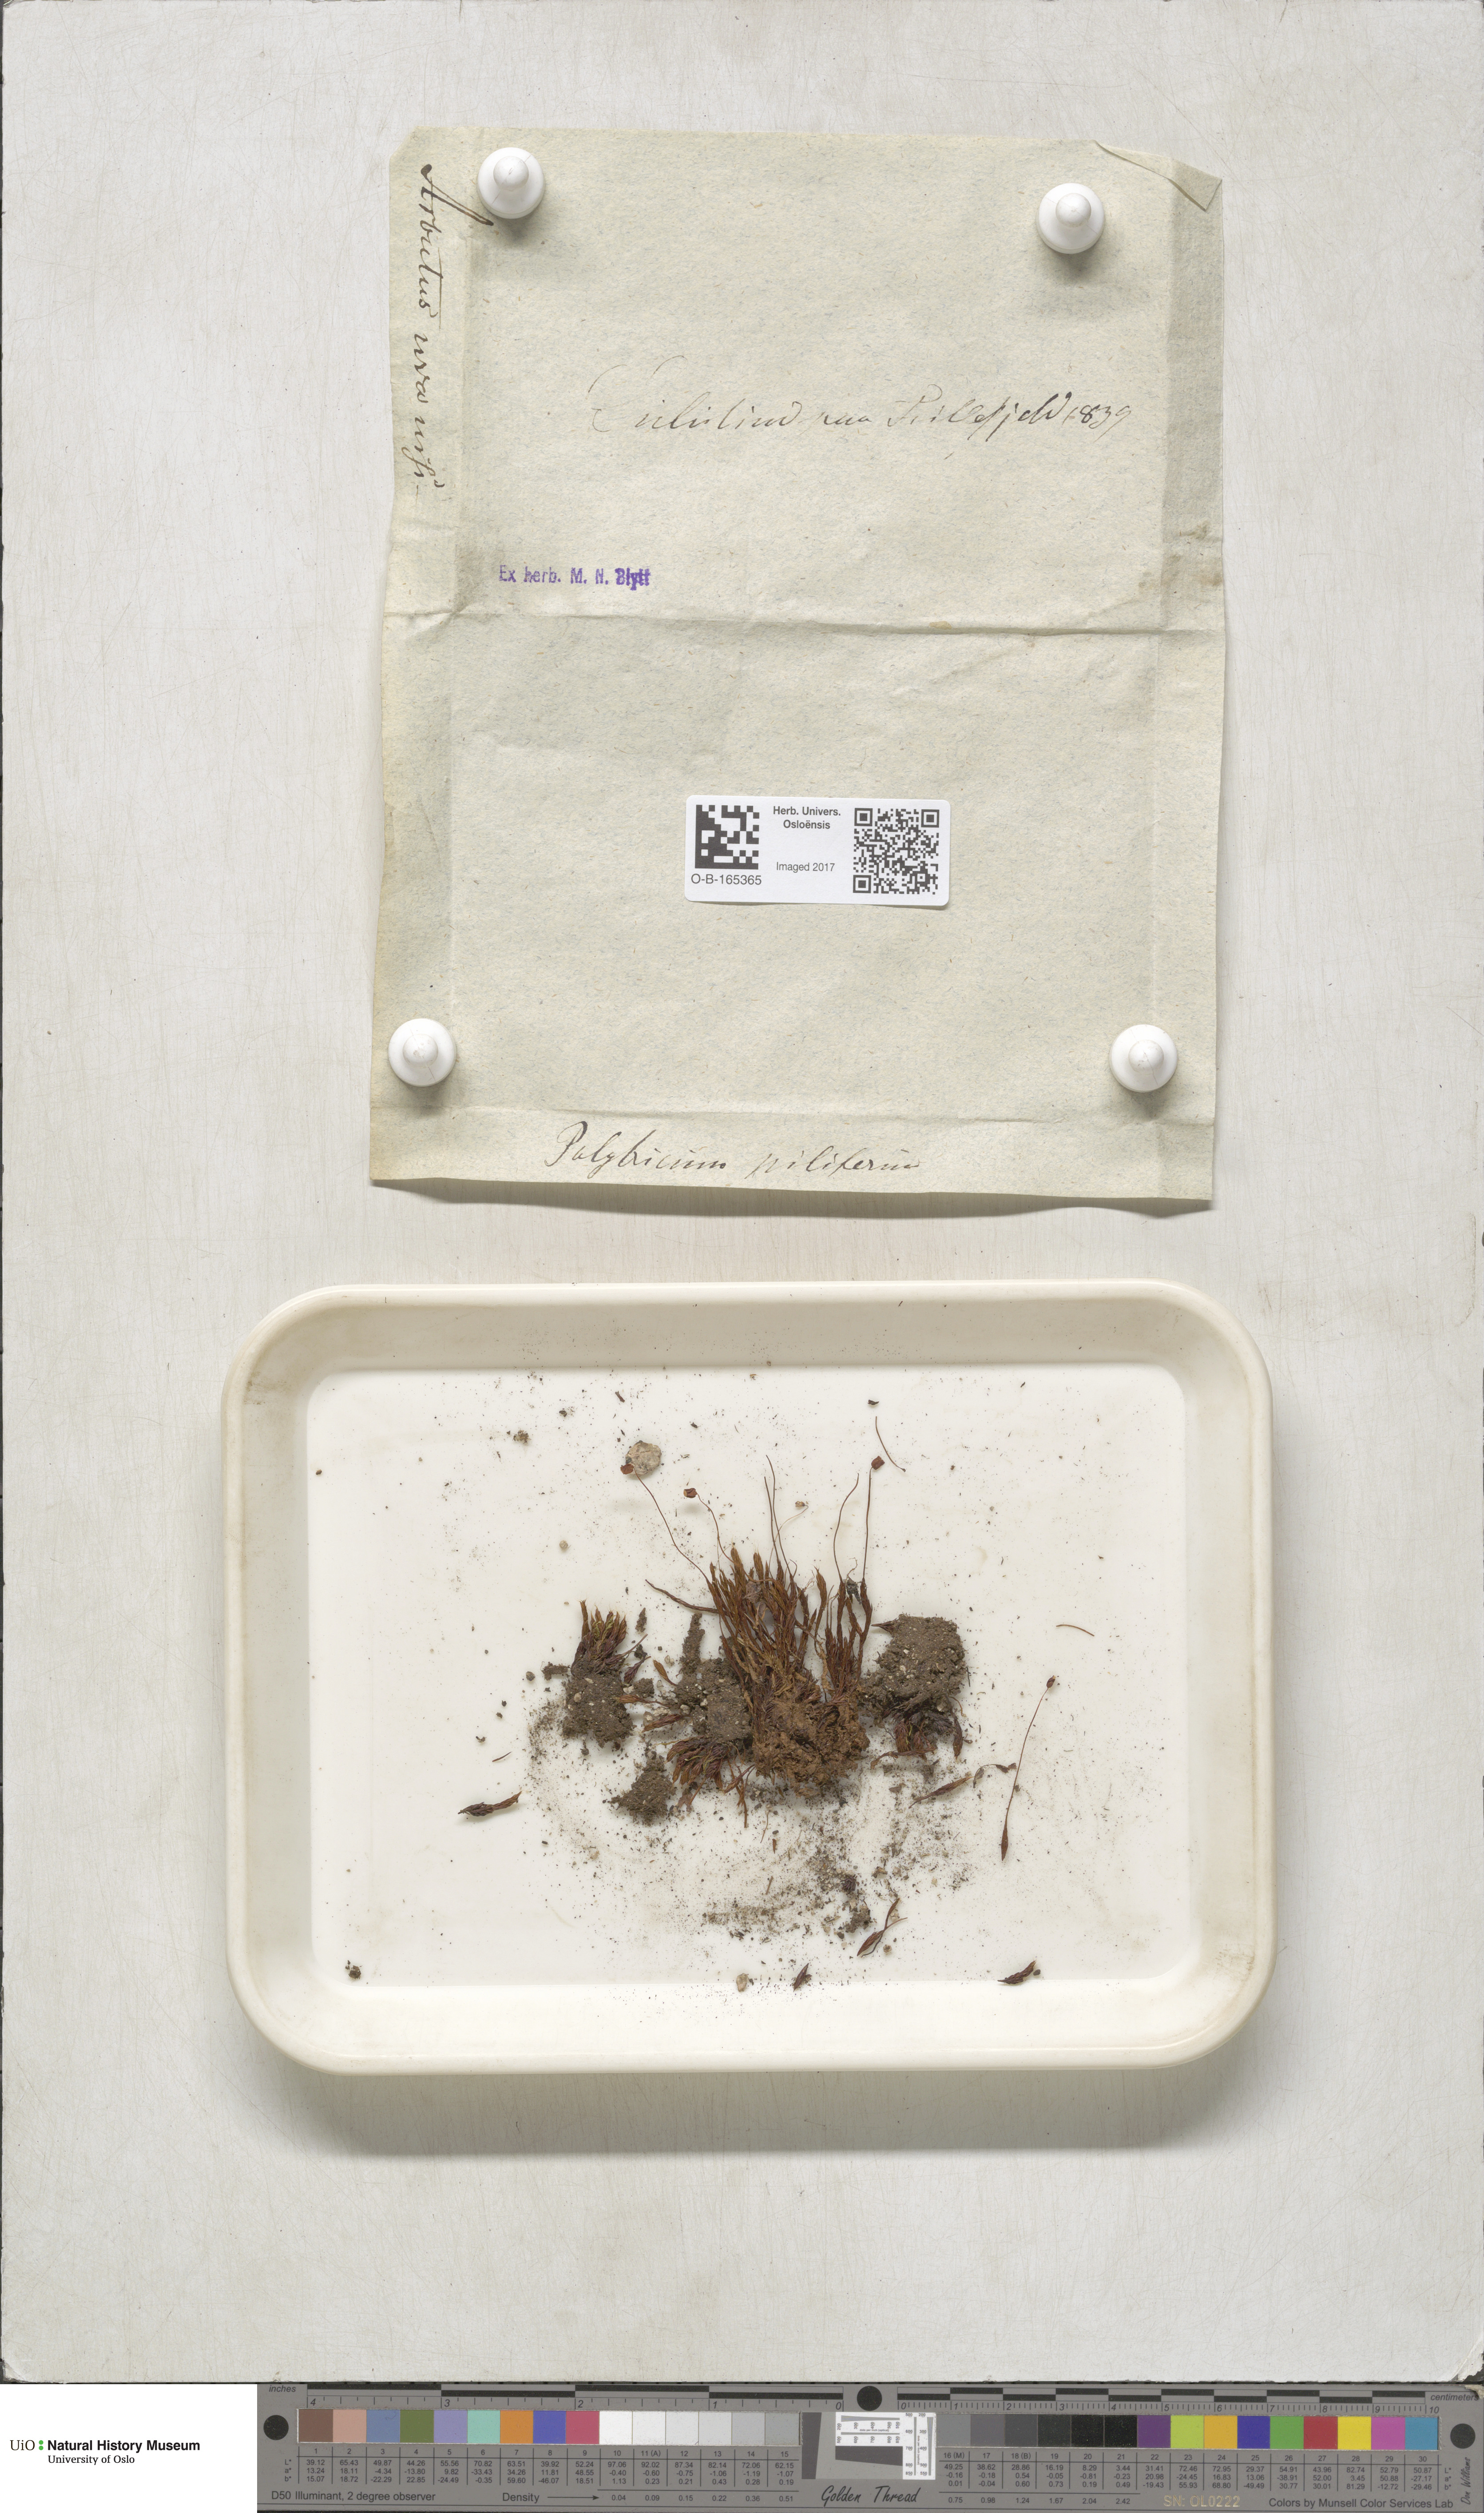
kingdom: Plantae
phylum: Bryophyta
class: Polytrichopsida
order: Polytrichales
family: Polytrichaceae
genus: Polytrichum
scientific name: Polytrichum piliferum
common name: Bristly haircap
